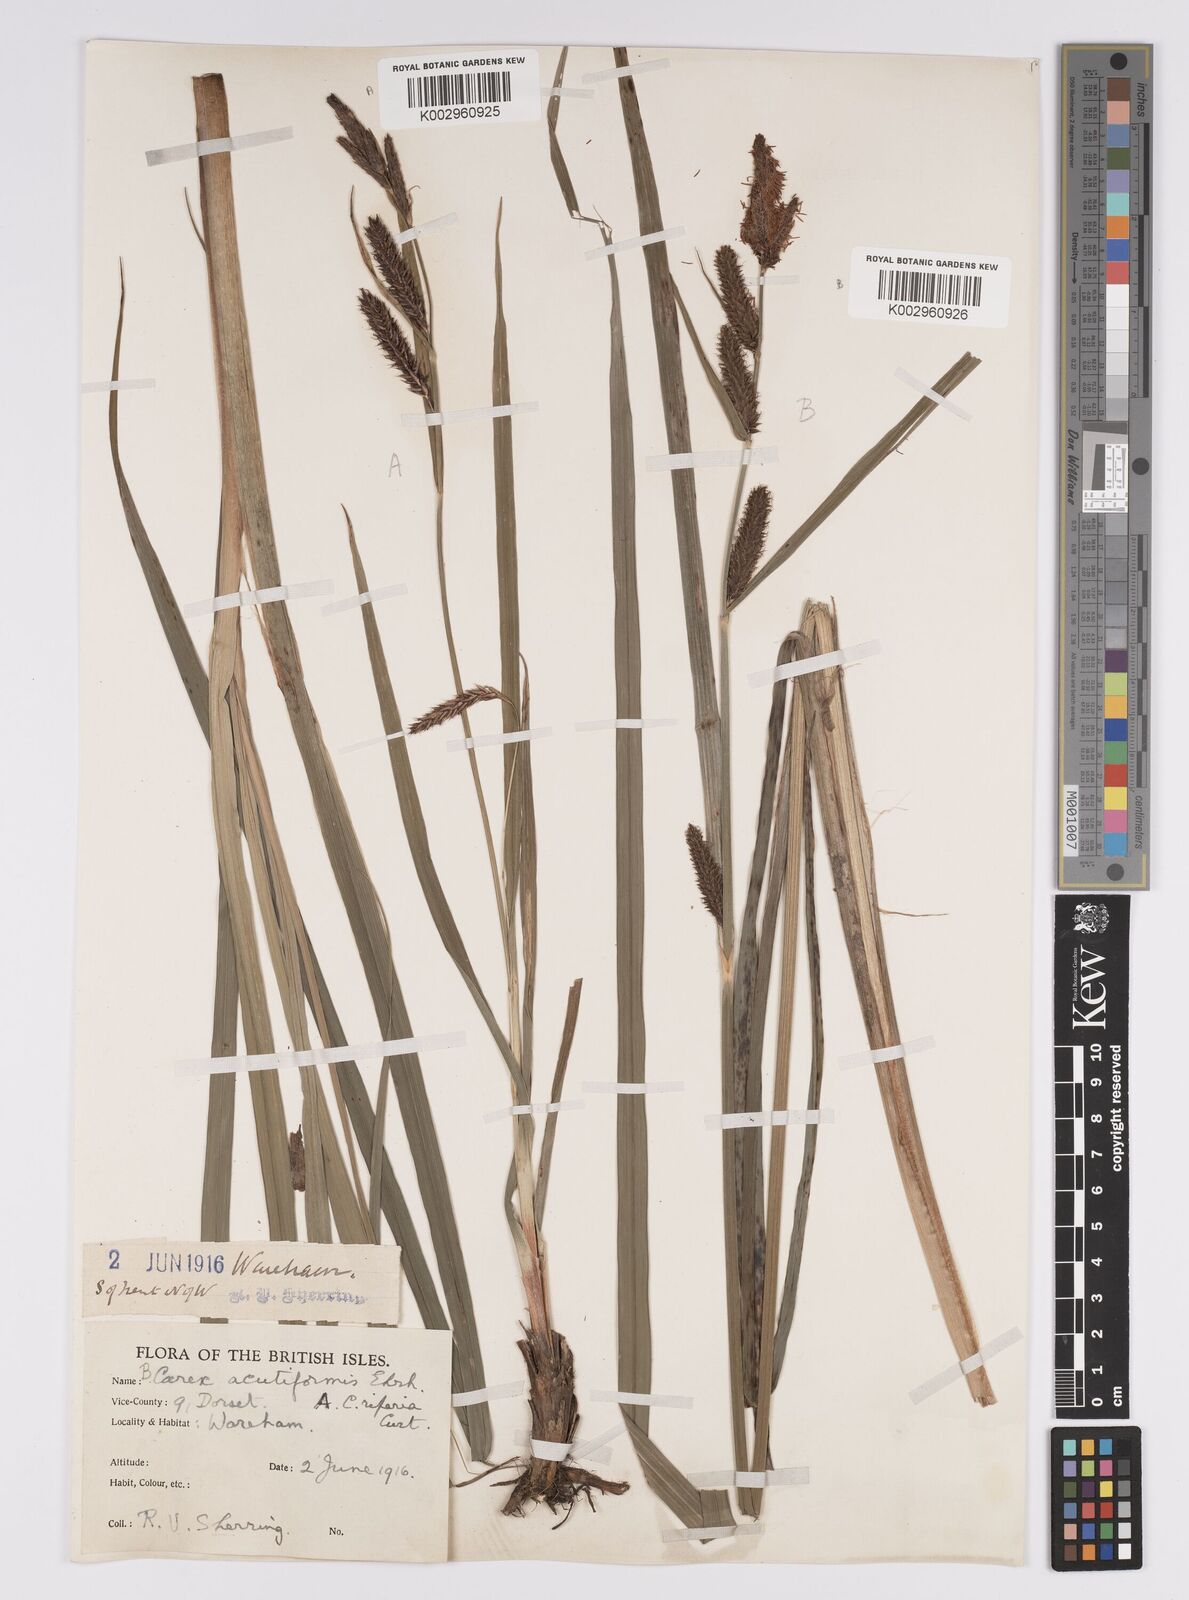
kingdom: Plantae
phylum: Tracheophyta
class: Liliopsida
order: Poales
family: Cyperaceae
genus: Carex
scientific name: Carex riparia
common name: Greater pond-sedge
